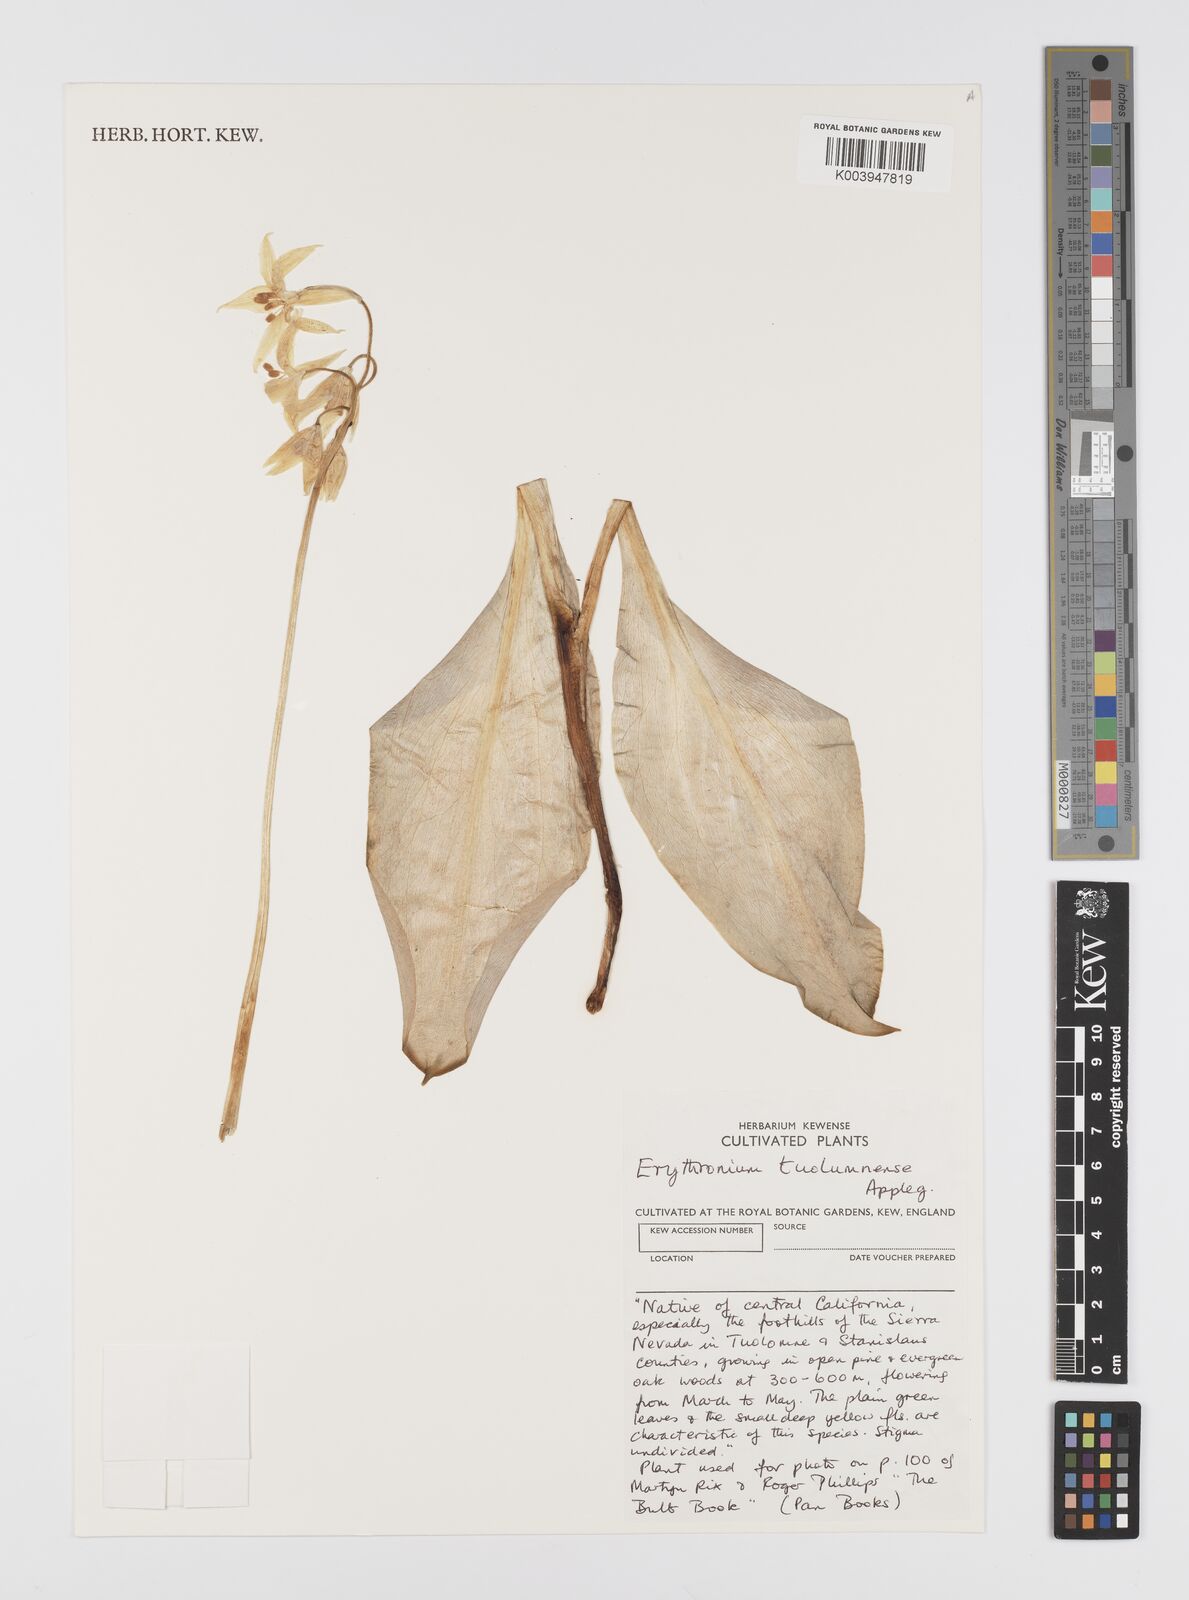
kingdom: Plantae
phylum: Tracheophyta
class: Liliopsida
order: Liliales
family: Liliaceae
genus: Erythronium
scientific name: Erythronium tuolumnense
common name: Tuolumne fawn-lily
